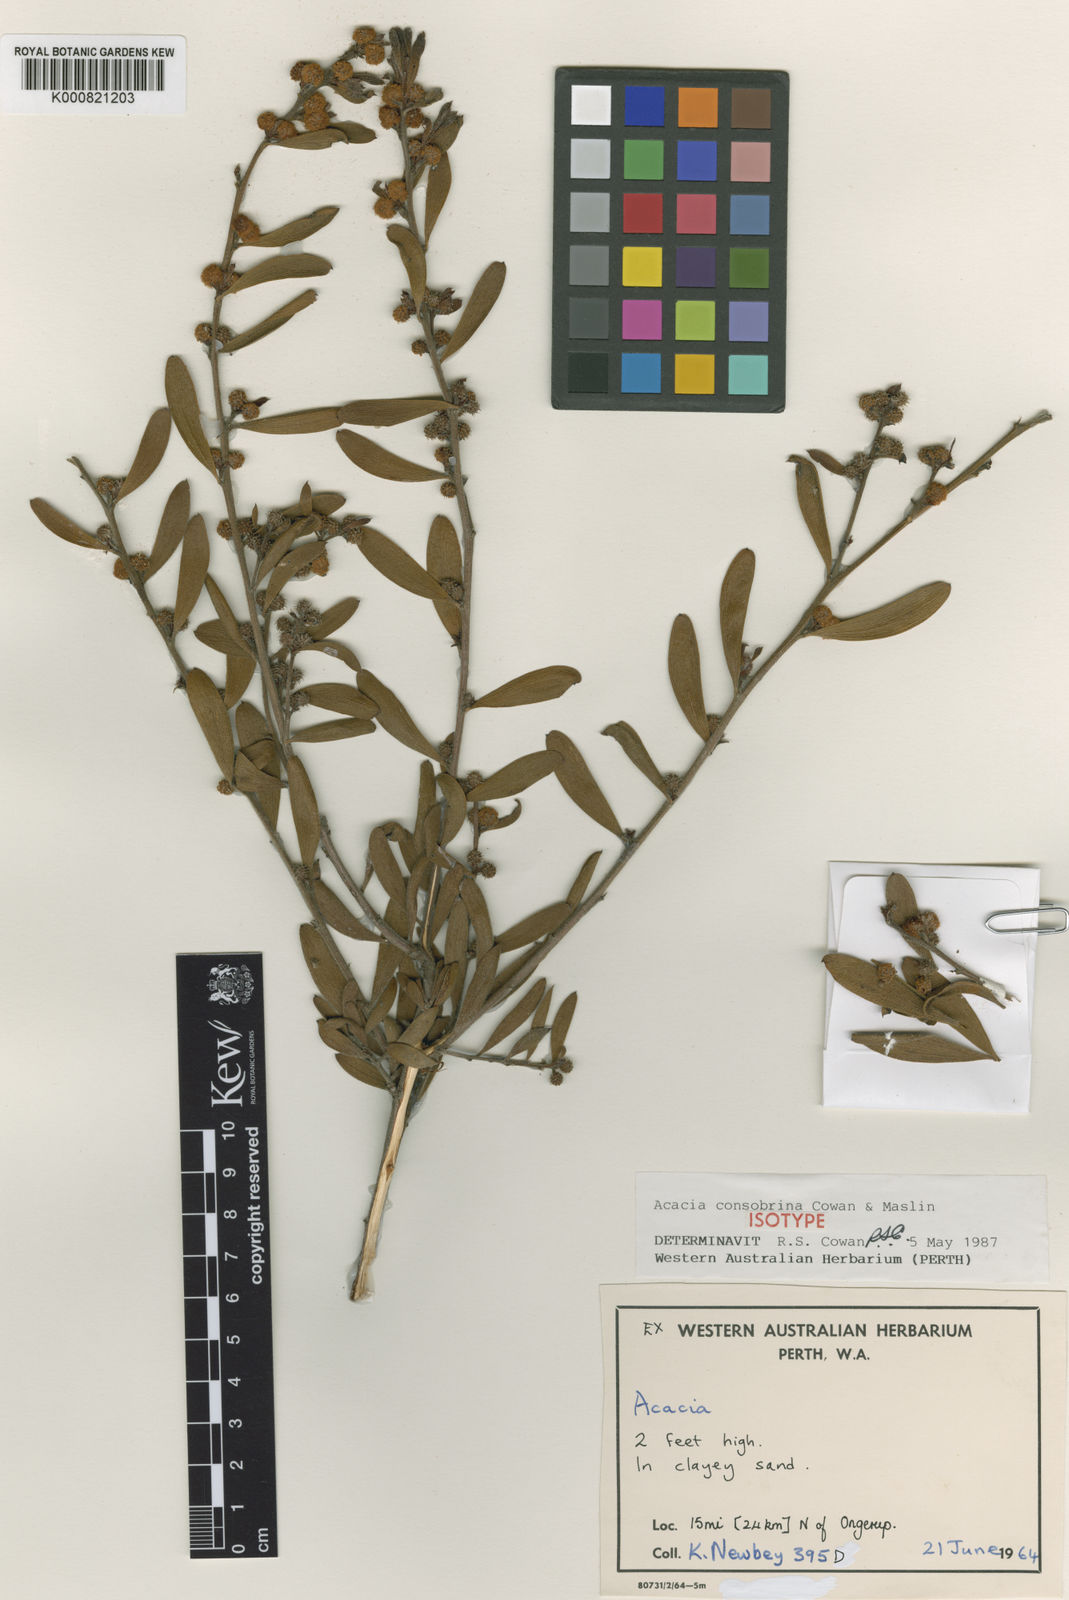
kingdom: Plantae
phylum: Tracheophyta
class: Magnoliopsida
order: Fabales
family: Fabaceae
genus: Acacia
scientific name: Acacia consobrina
